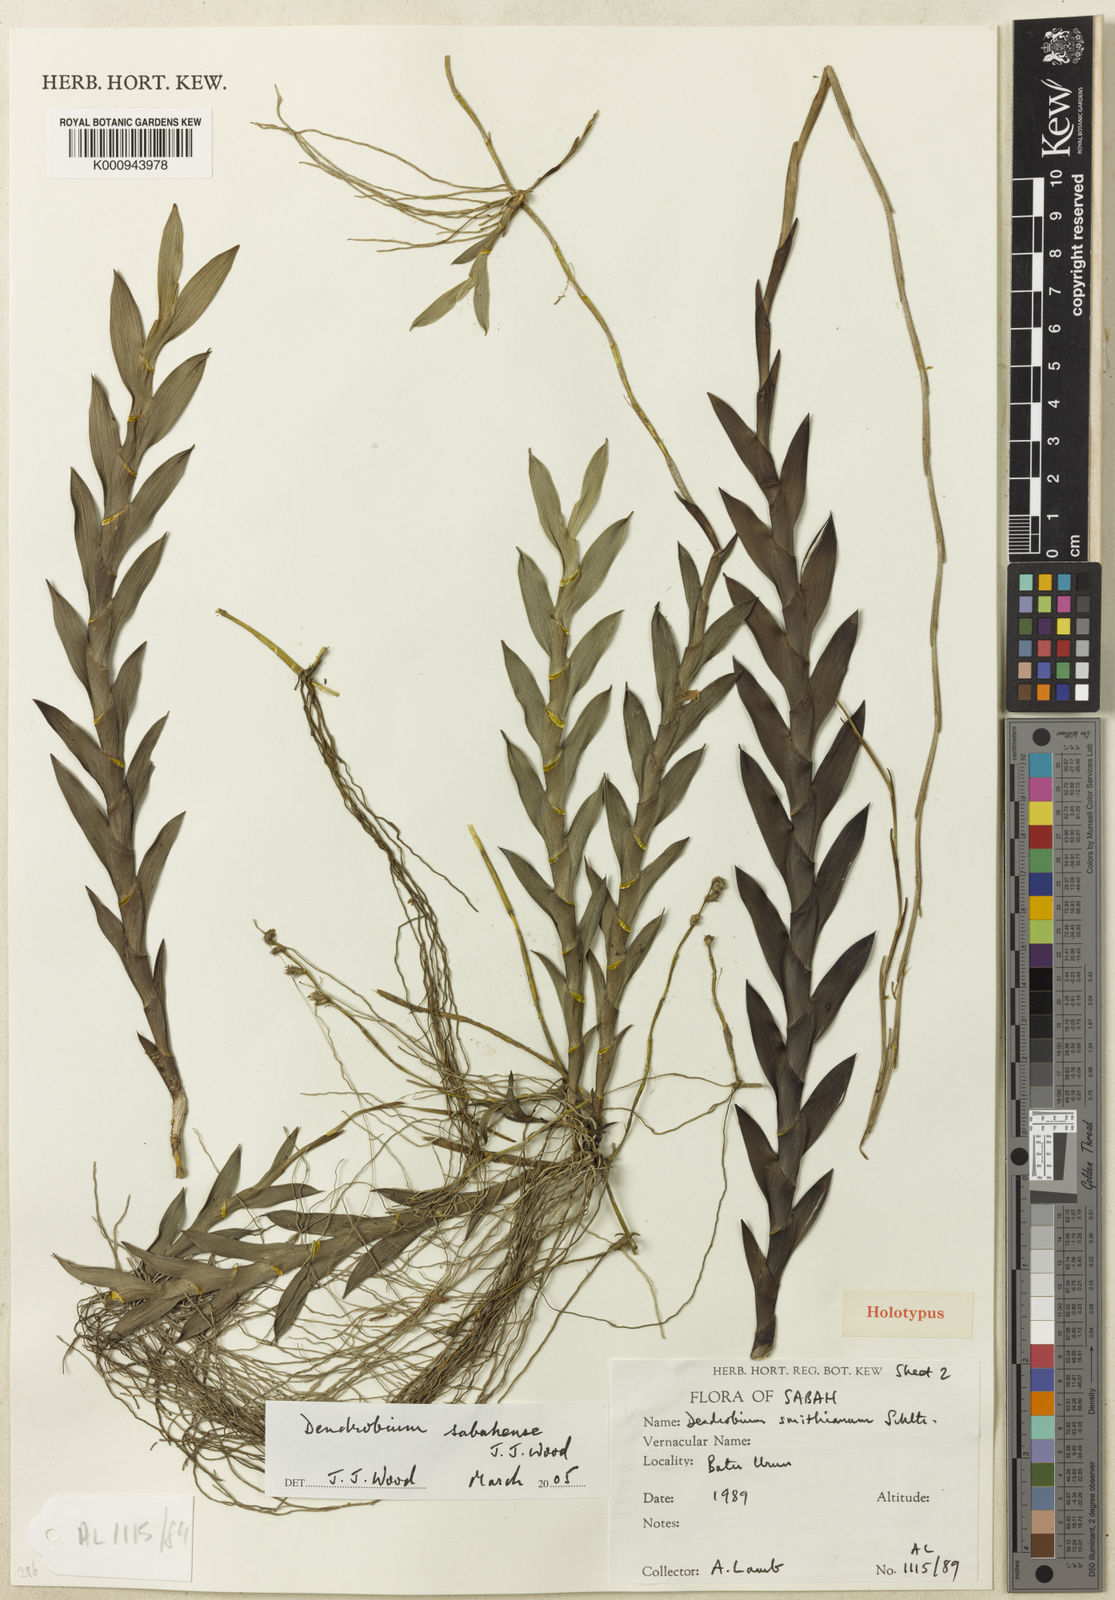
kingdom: Plantae
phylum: Tracheophyta
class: Liliopsida
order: Asparagales
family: Orchidaceae
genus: Dendrobium
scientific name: Dendrobium sabahense
